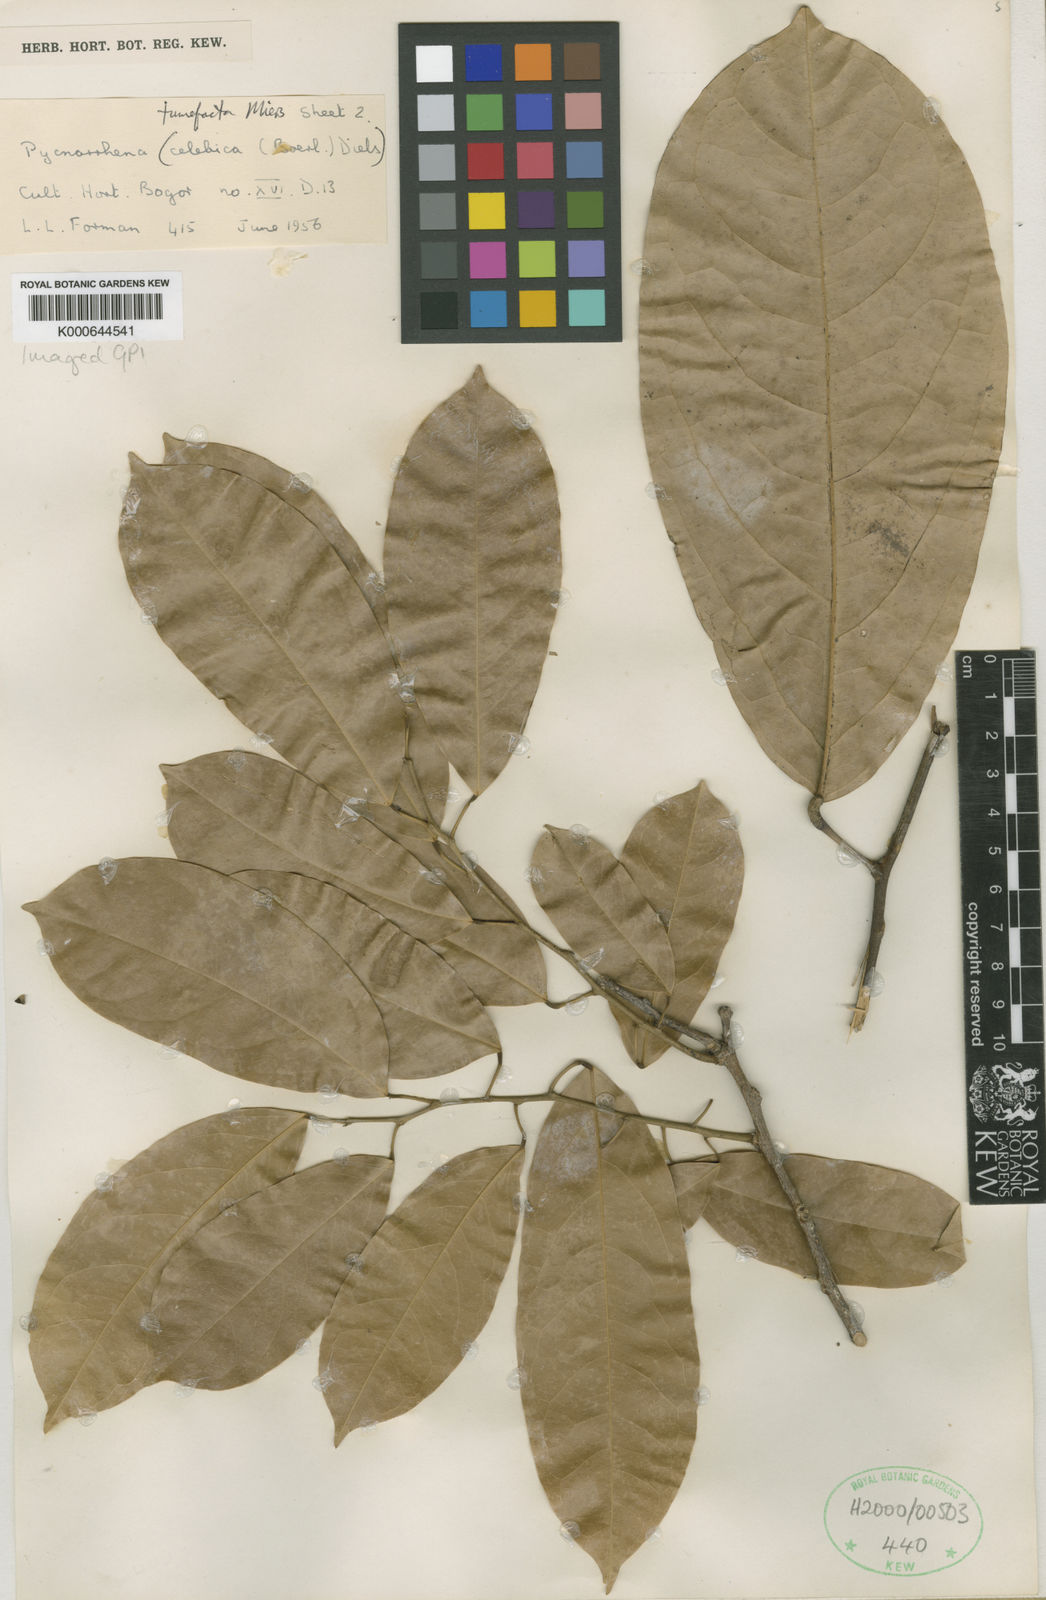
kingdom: Plantae
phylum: Tracheophyta
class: Magnoliopsida
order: Ranunculales
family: Menispermaceae
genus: Pycnarrhena
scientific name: Pycnarrhena tumefacta
